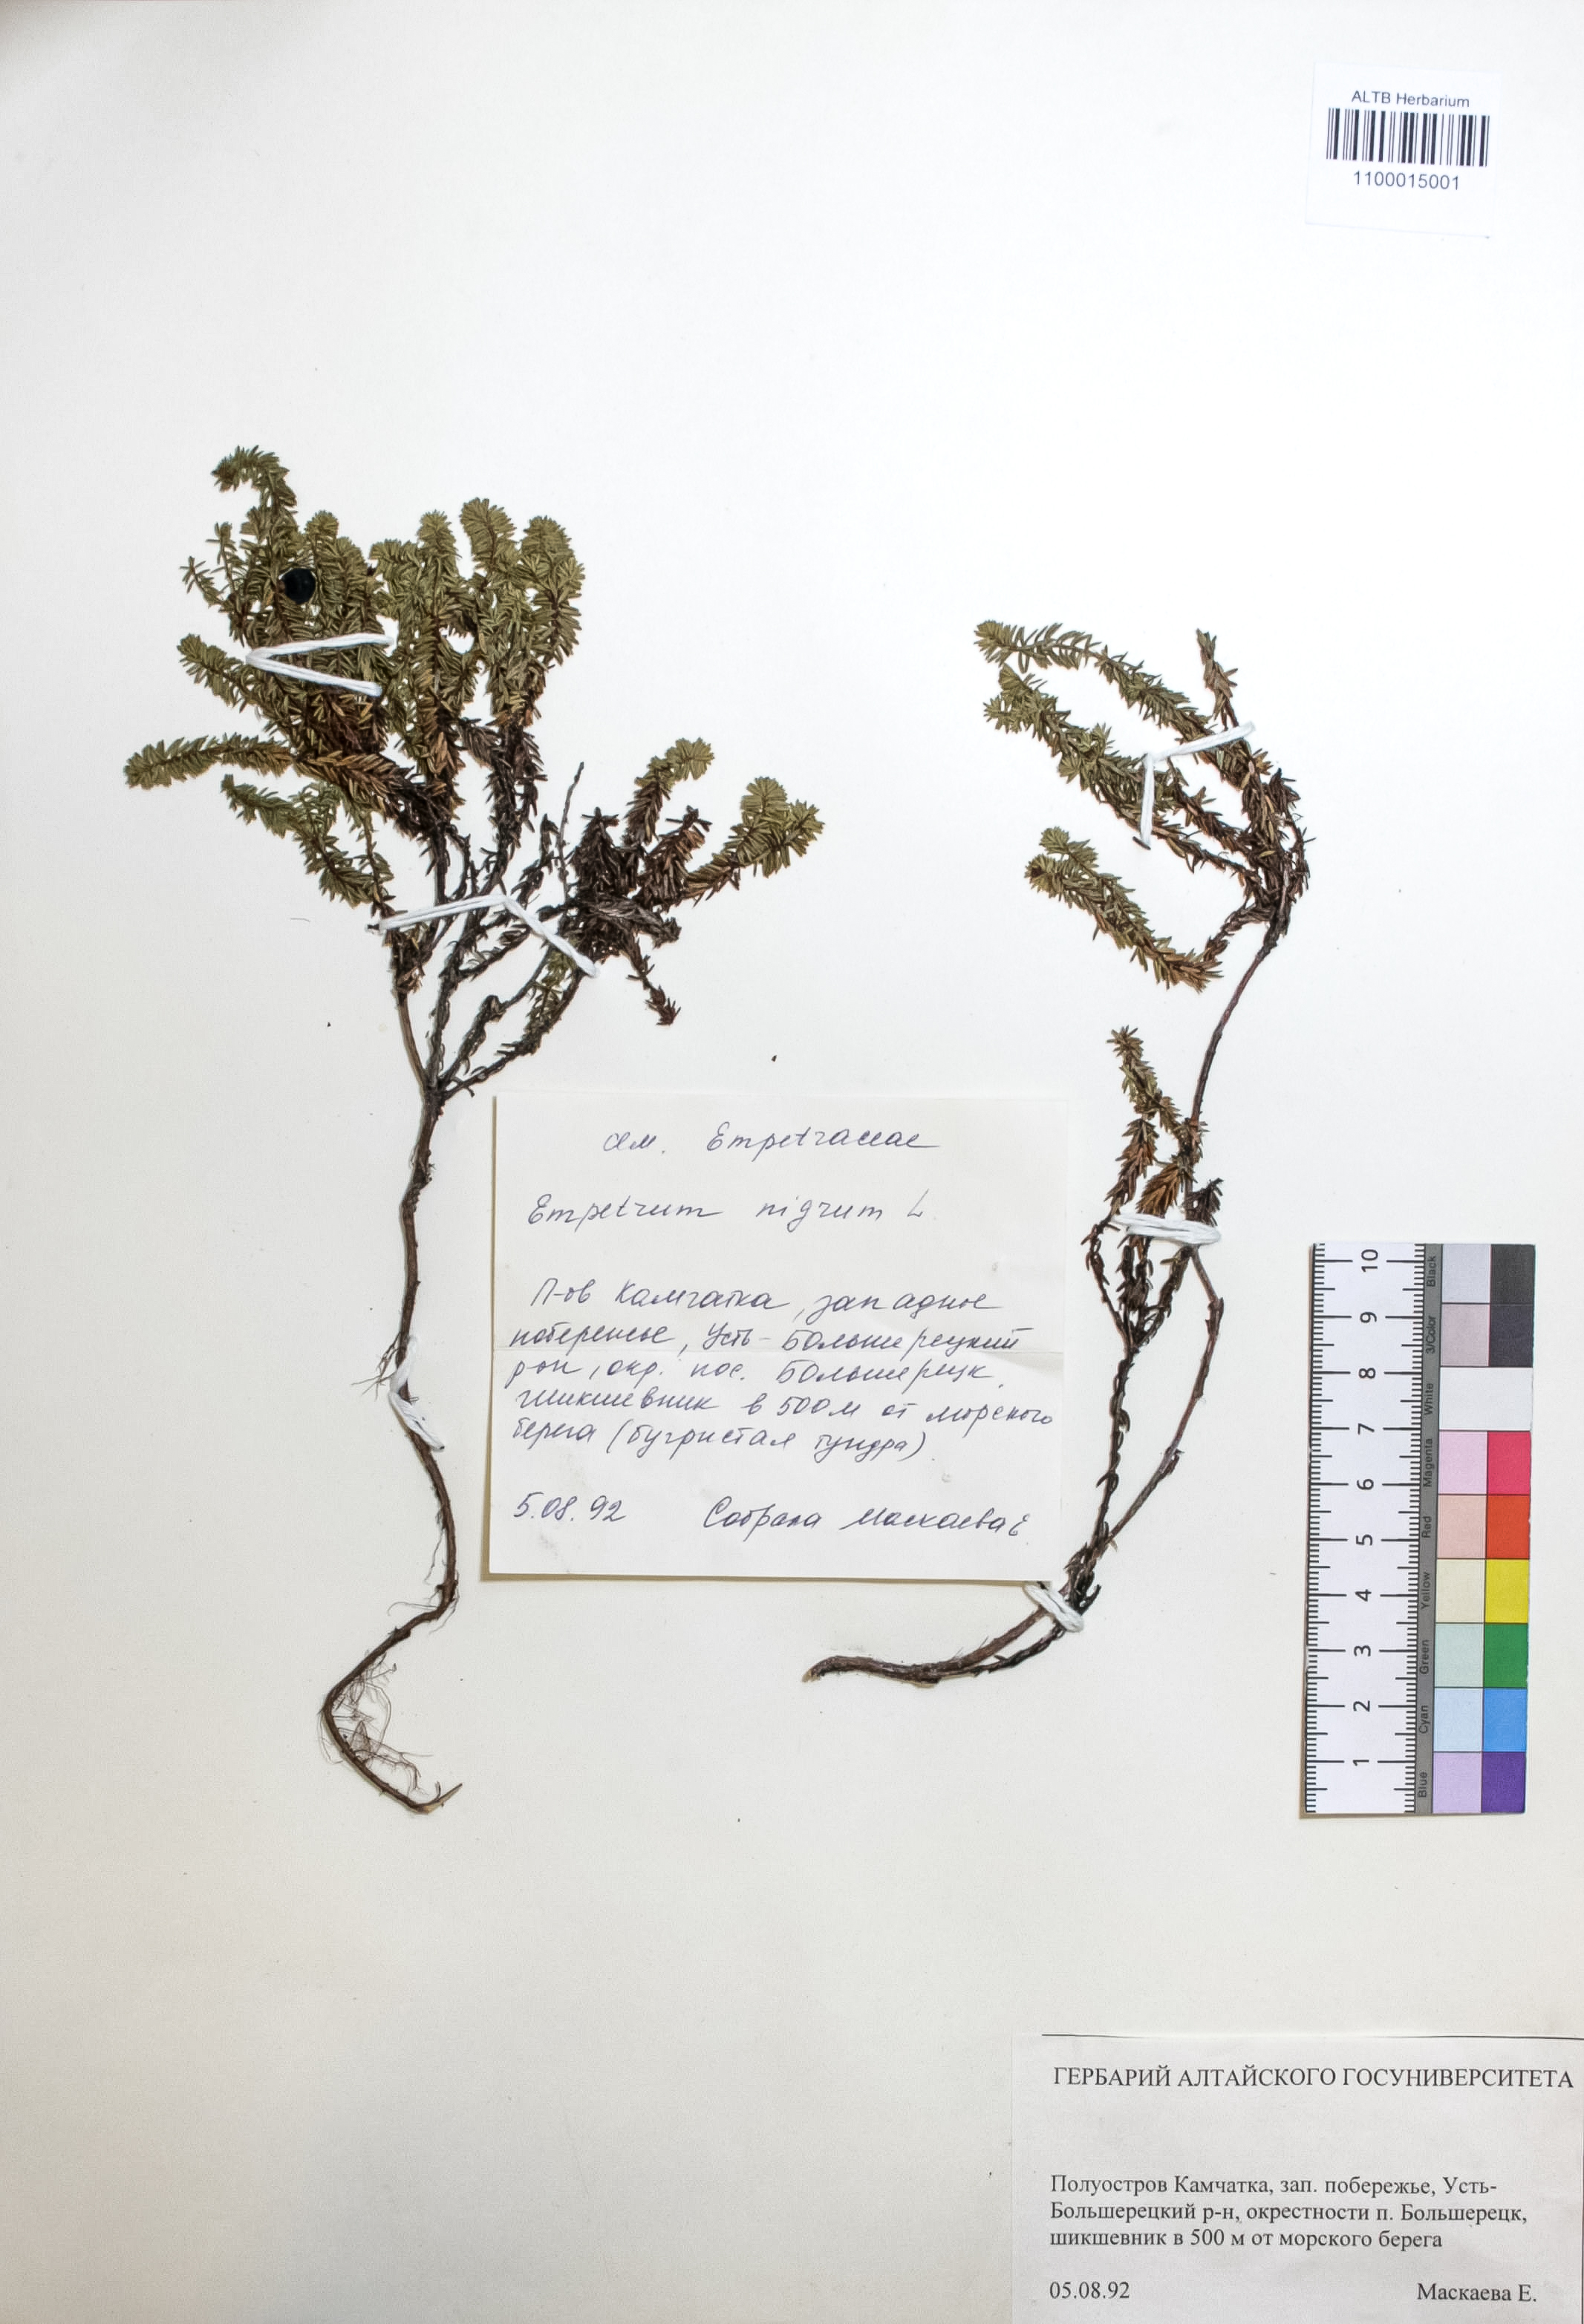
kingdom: Plantae
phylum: Tracheophyta
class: Magnoliopsida
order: Ericales
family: Ericaceae
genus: Empetrum
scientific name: Empetrum nigrum
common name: Black crowberry
